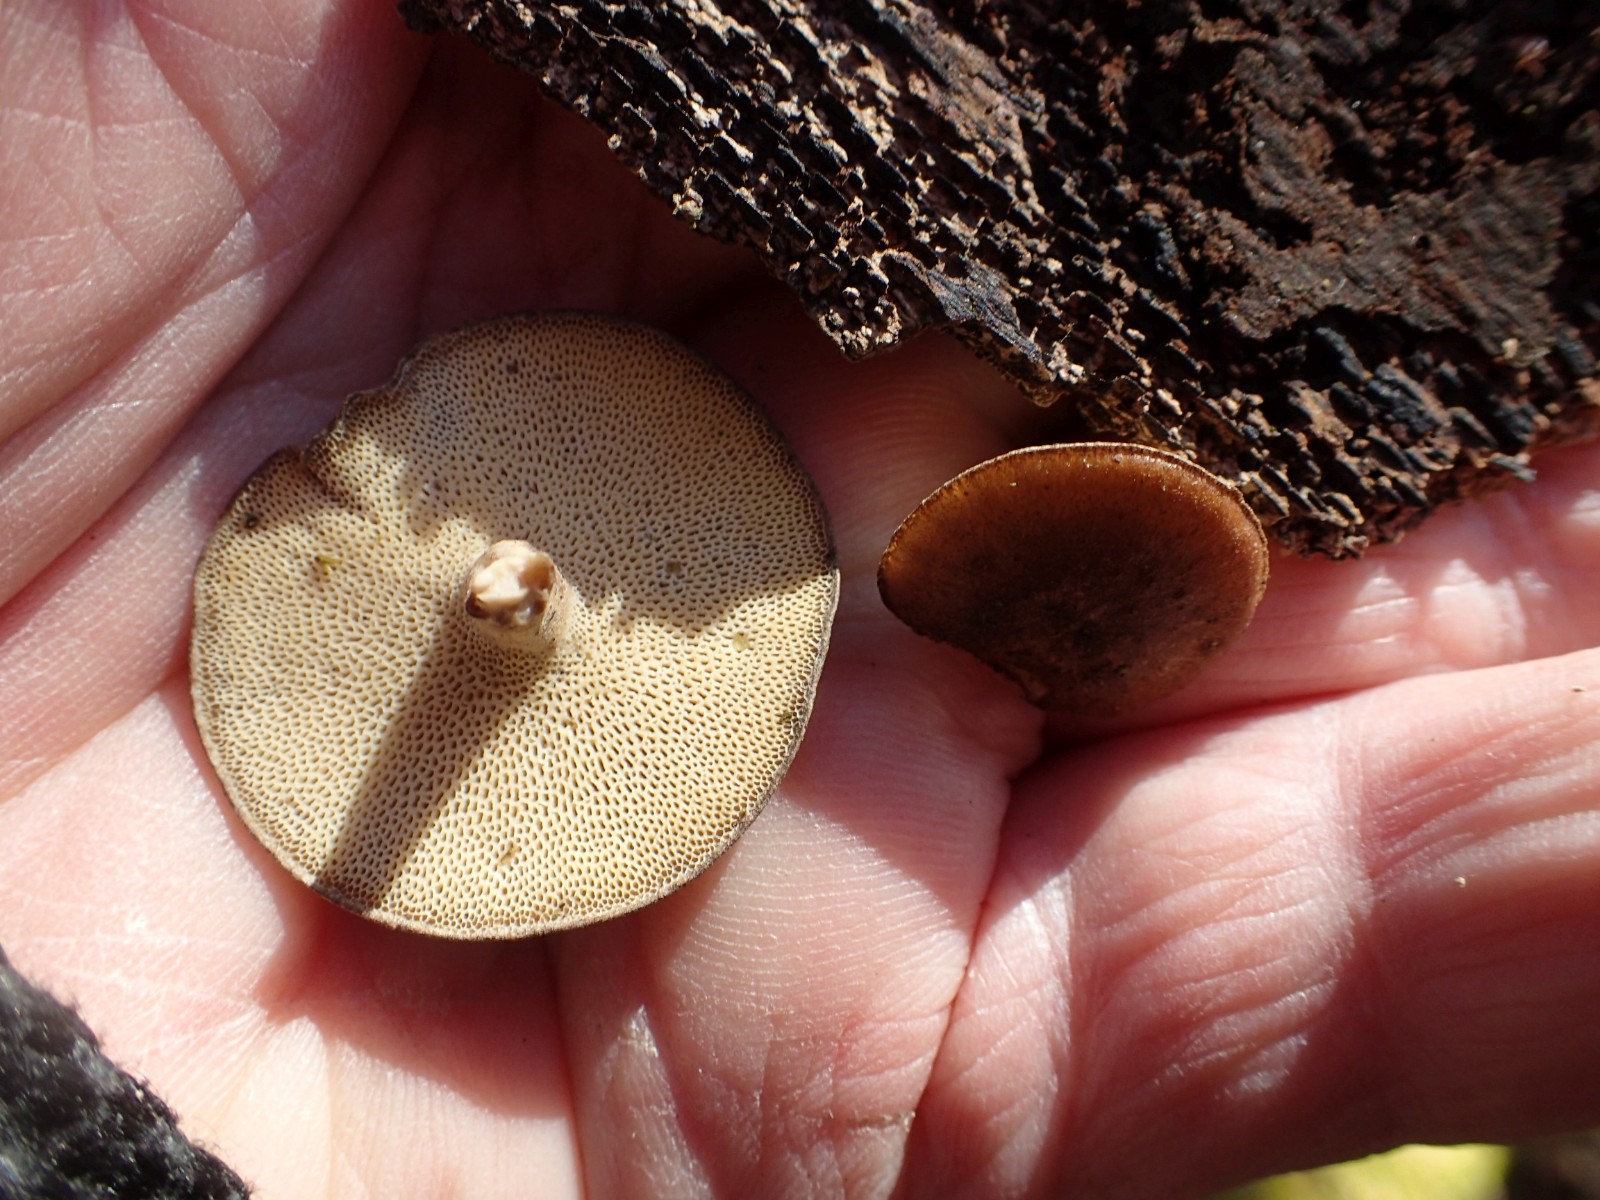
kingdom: Fungi
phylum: Basidiomycota
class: Agaricomycetes
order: Polyporales
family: Polyporaceae
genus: Lentinus
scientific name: Lentinus brumalis
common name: vinter-stilkporesvamp
